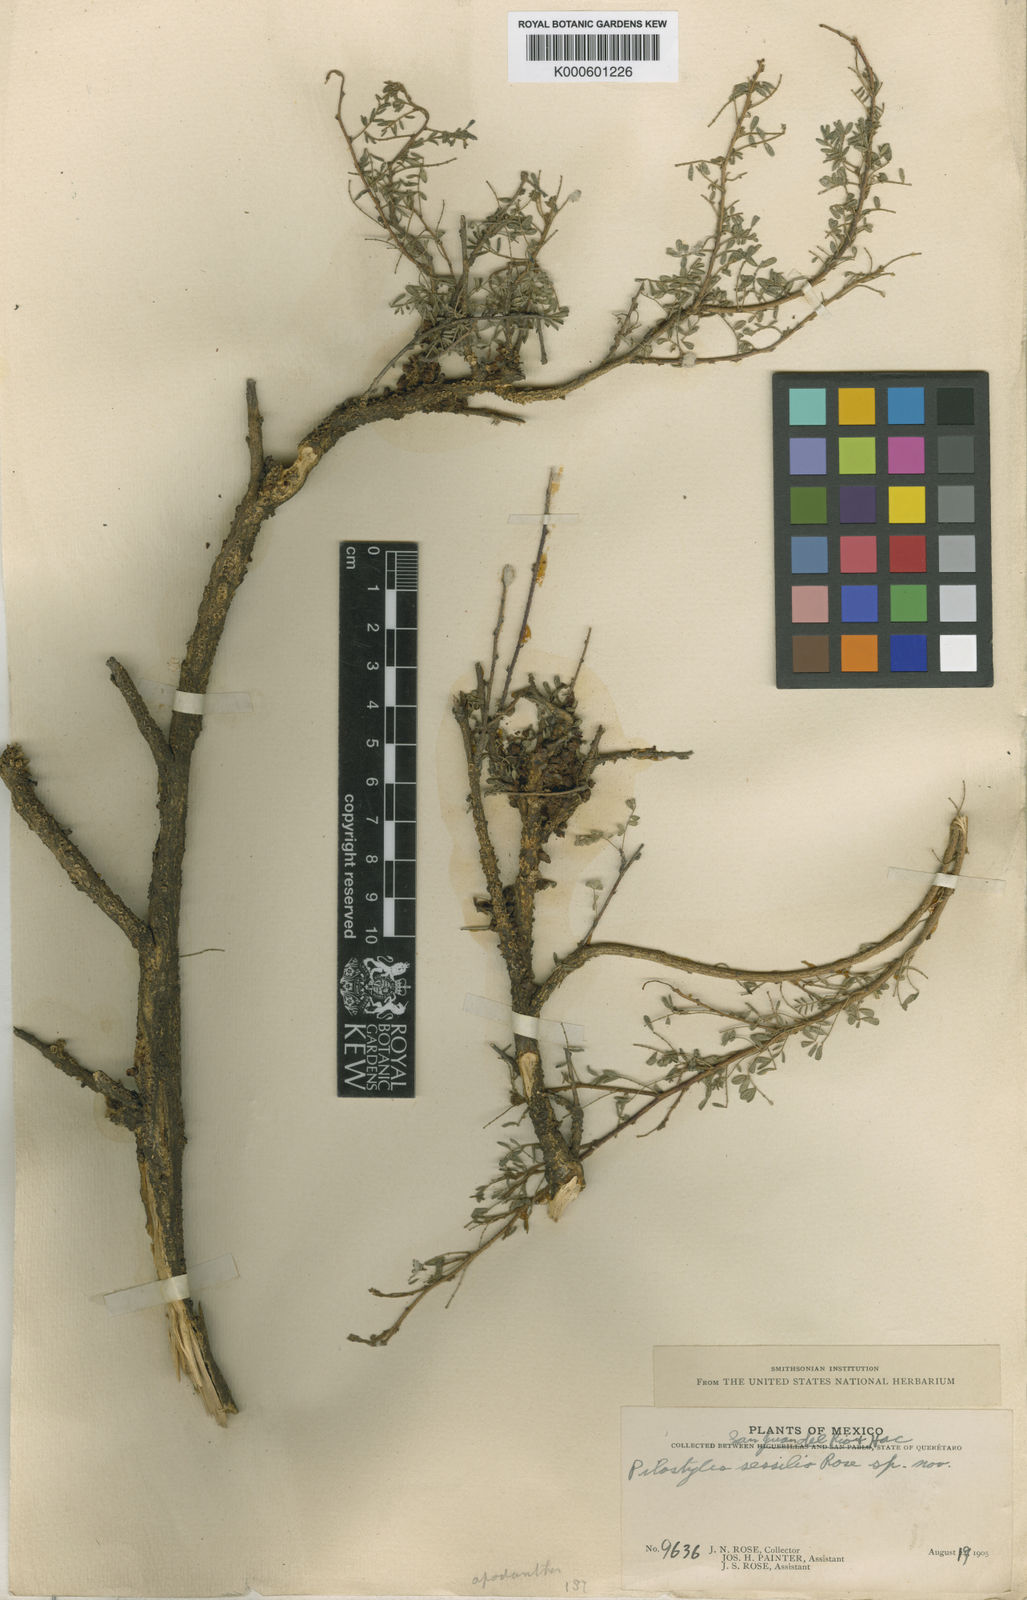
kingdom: Plantae
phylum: Tracheophyta
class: Magnoliopsida
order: Cucurbitales
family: Apodanthaceae
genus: Pilostyles
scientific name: Pilostyles thurberi
